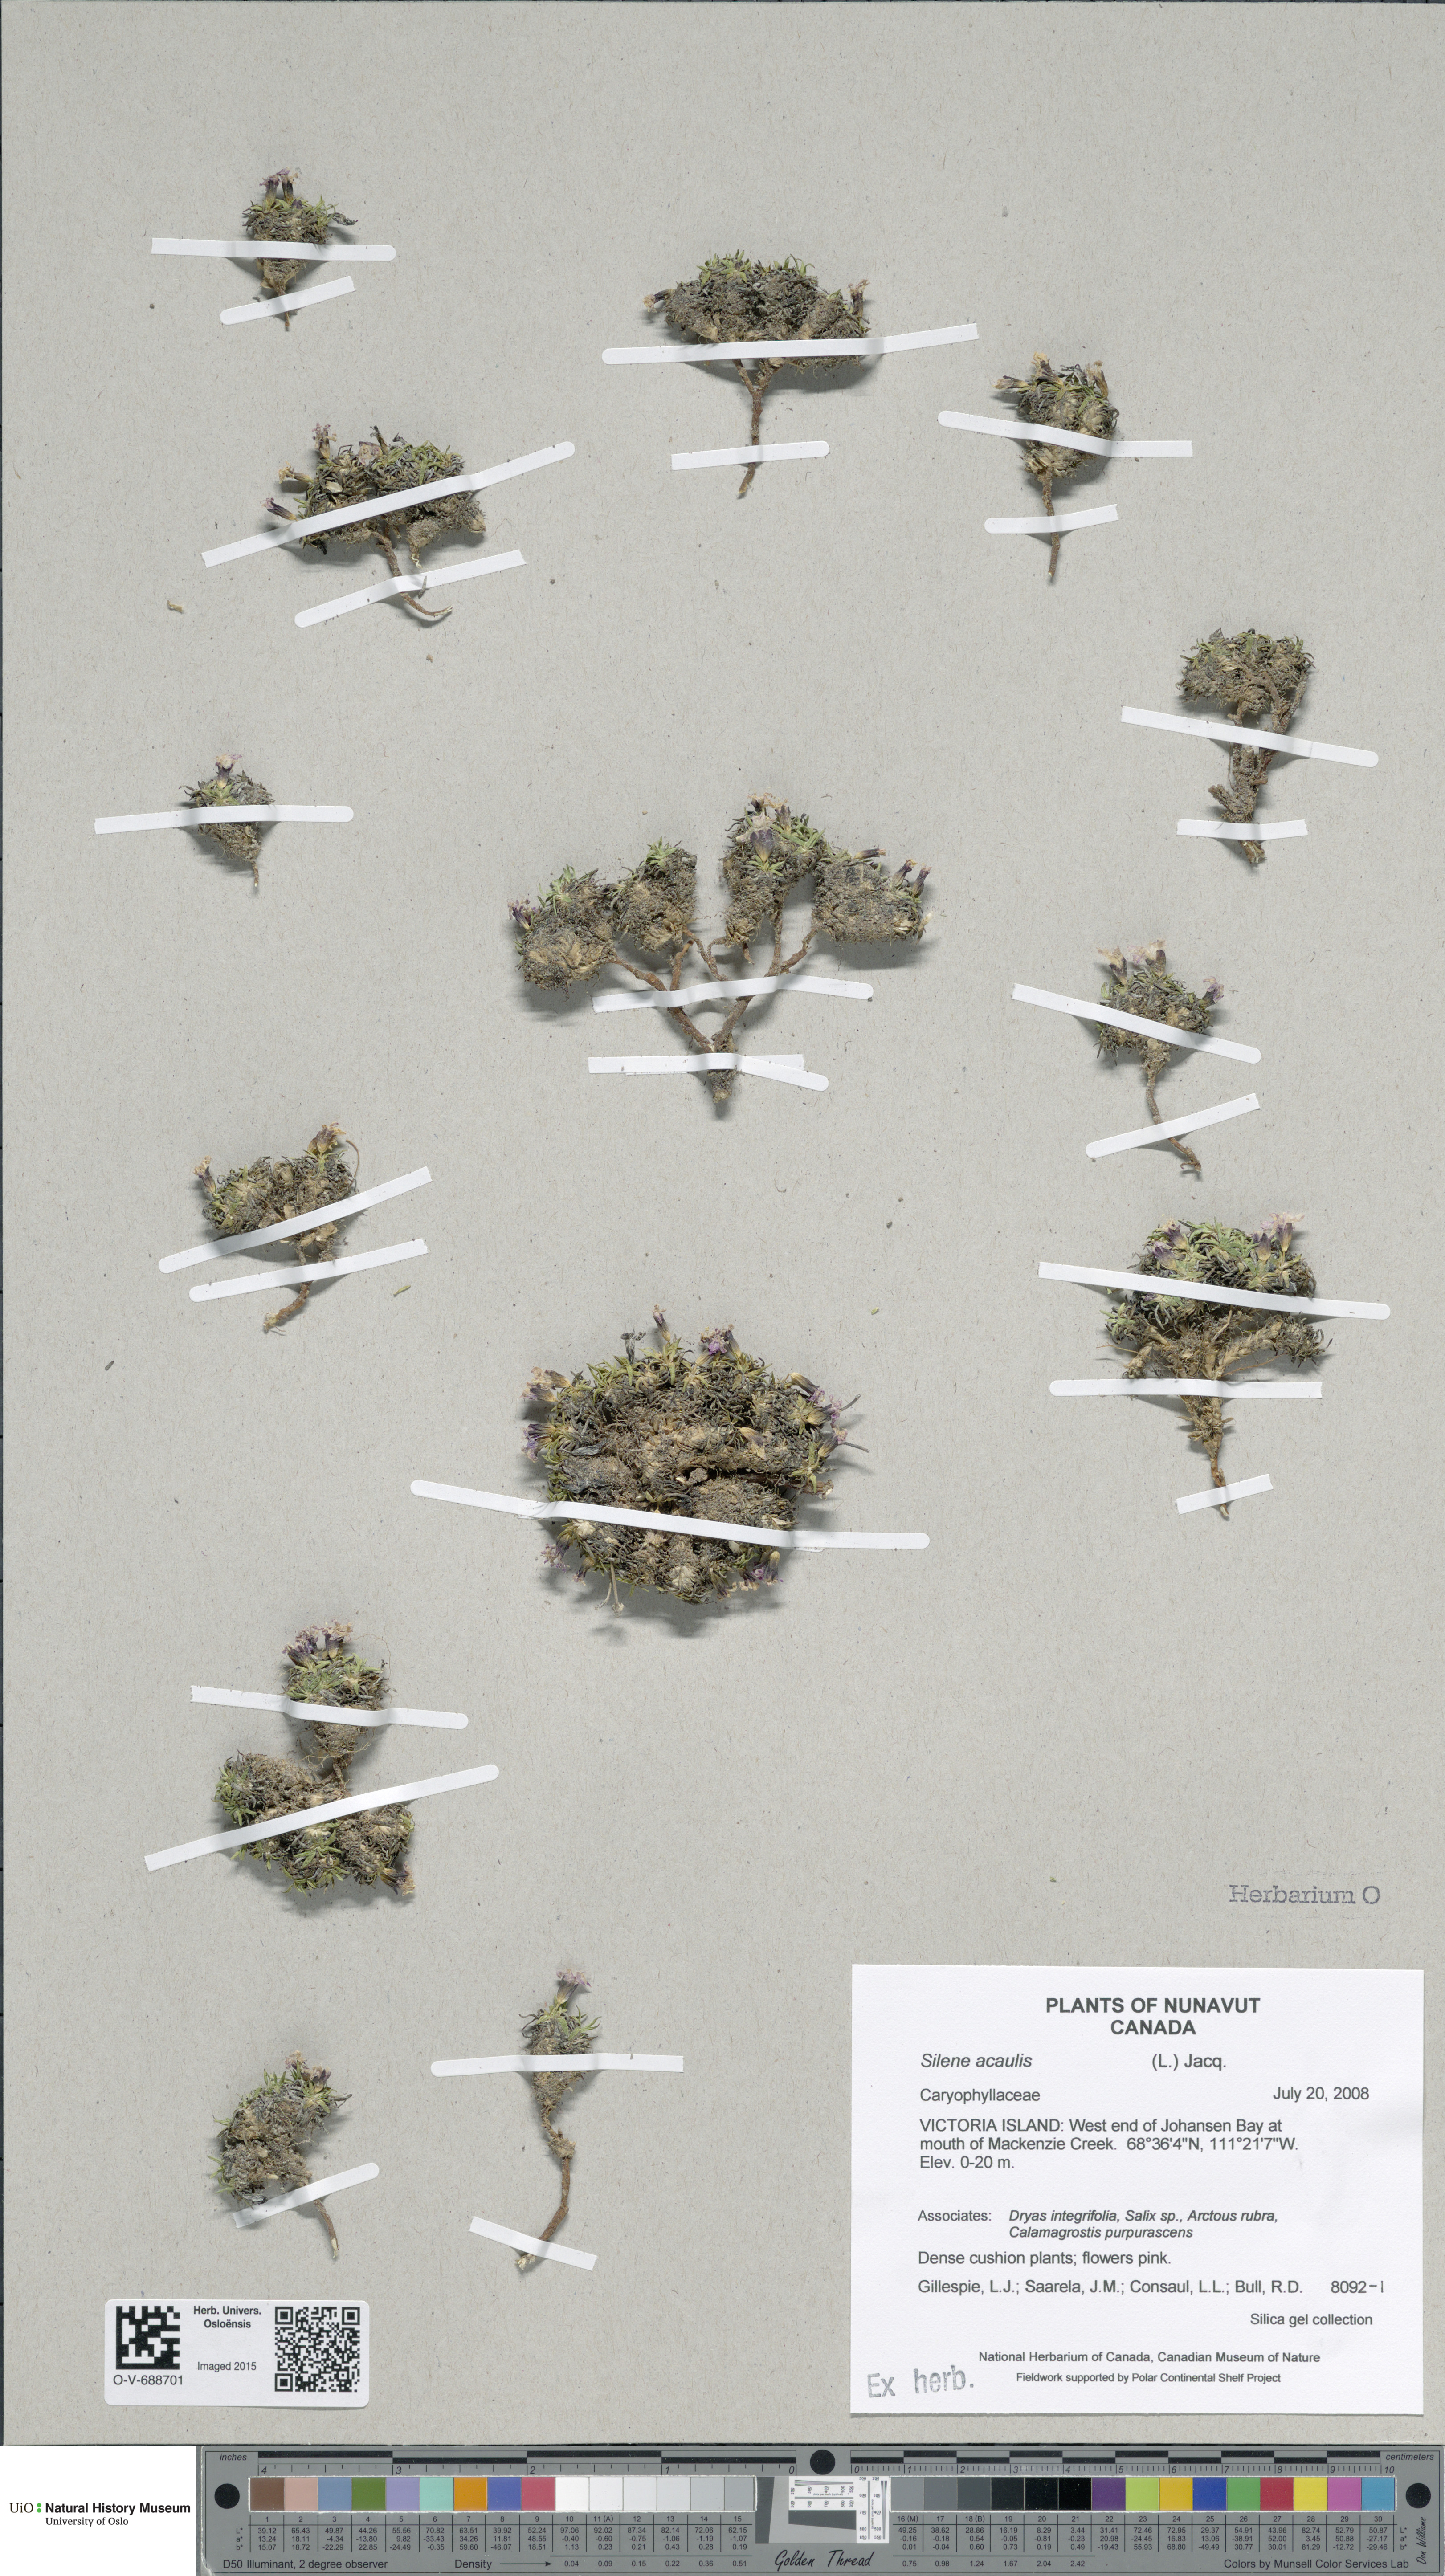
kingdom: Plantae
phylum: Tracheophyta
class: Magnoliopsida
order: Caryophyllales
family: Caryophyllaceae
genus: Silene
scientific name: Silene acaulis
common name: Moss campion
